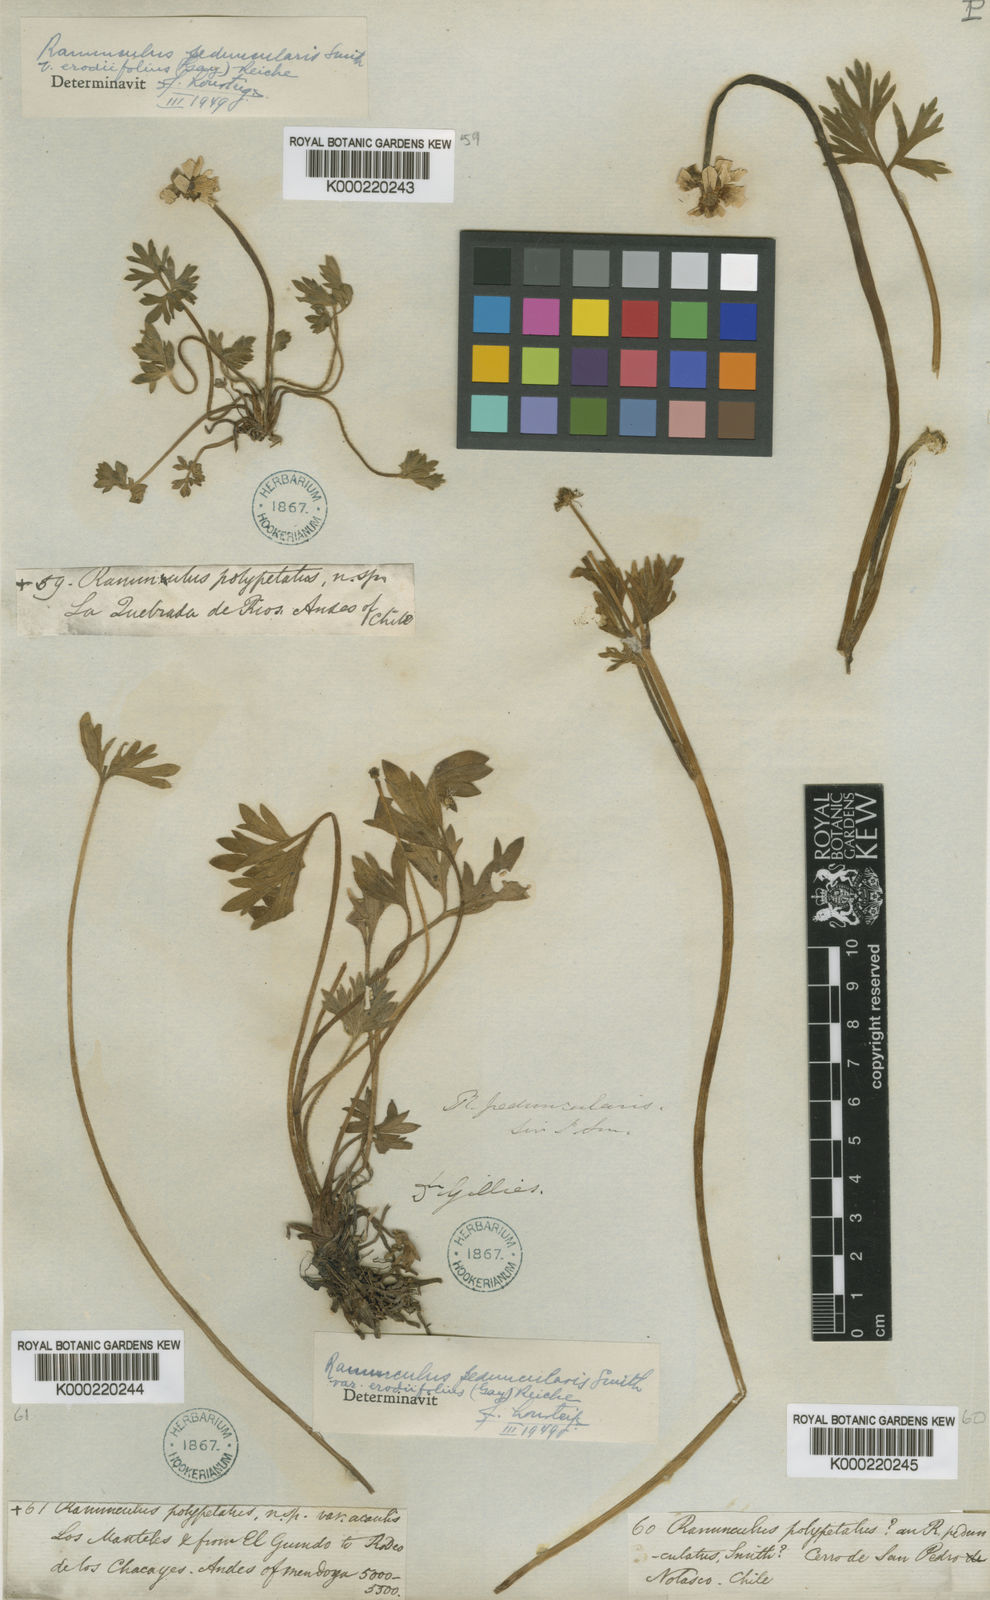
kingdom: Plantae
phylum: Tracheophyta
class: Magnoliopsida
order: Ranunculales
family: Ranunculaceae
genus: Ranunculus
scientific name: Ranunculus peduncularis
